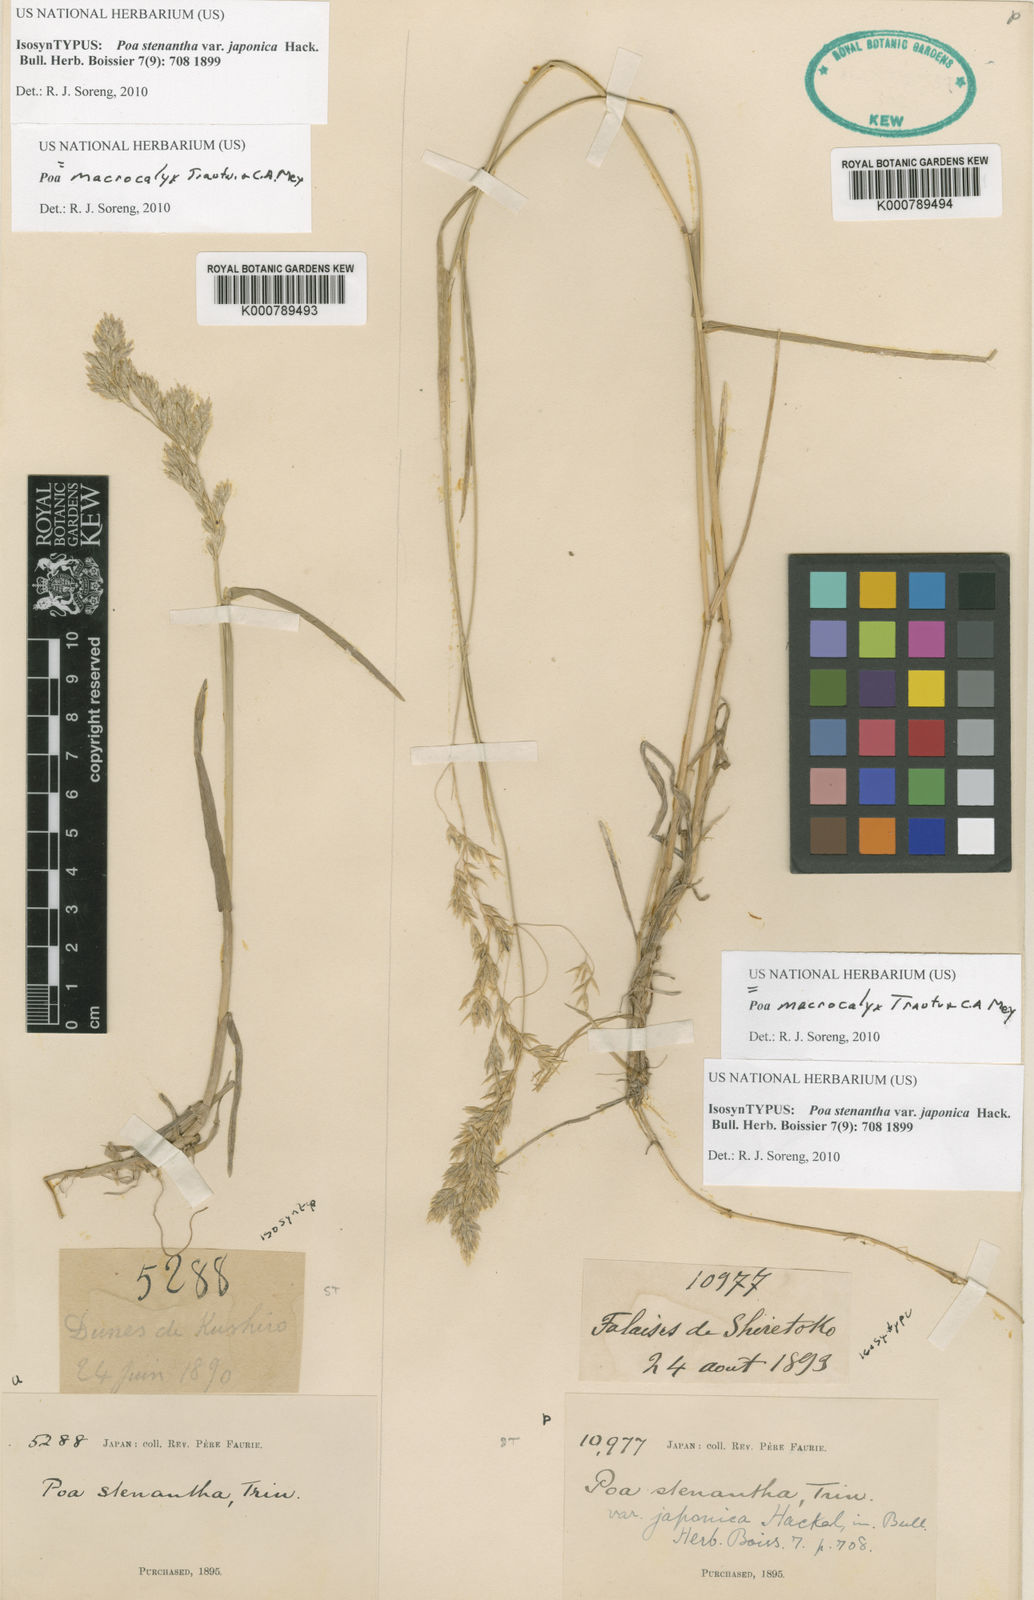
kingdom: Plantae
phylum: Tracheophyta
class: Liliopsida
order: Poales
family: Poaceae
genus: Poa
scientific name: Poa macrocalyx
